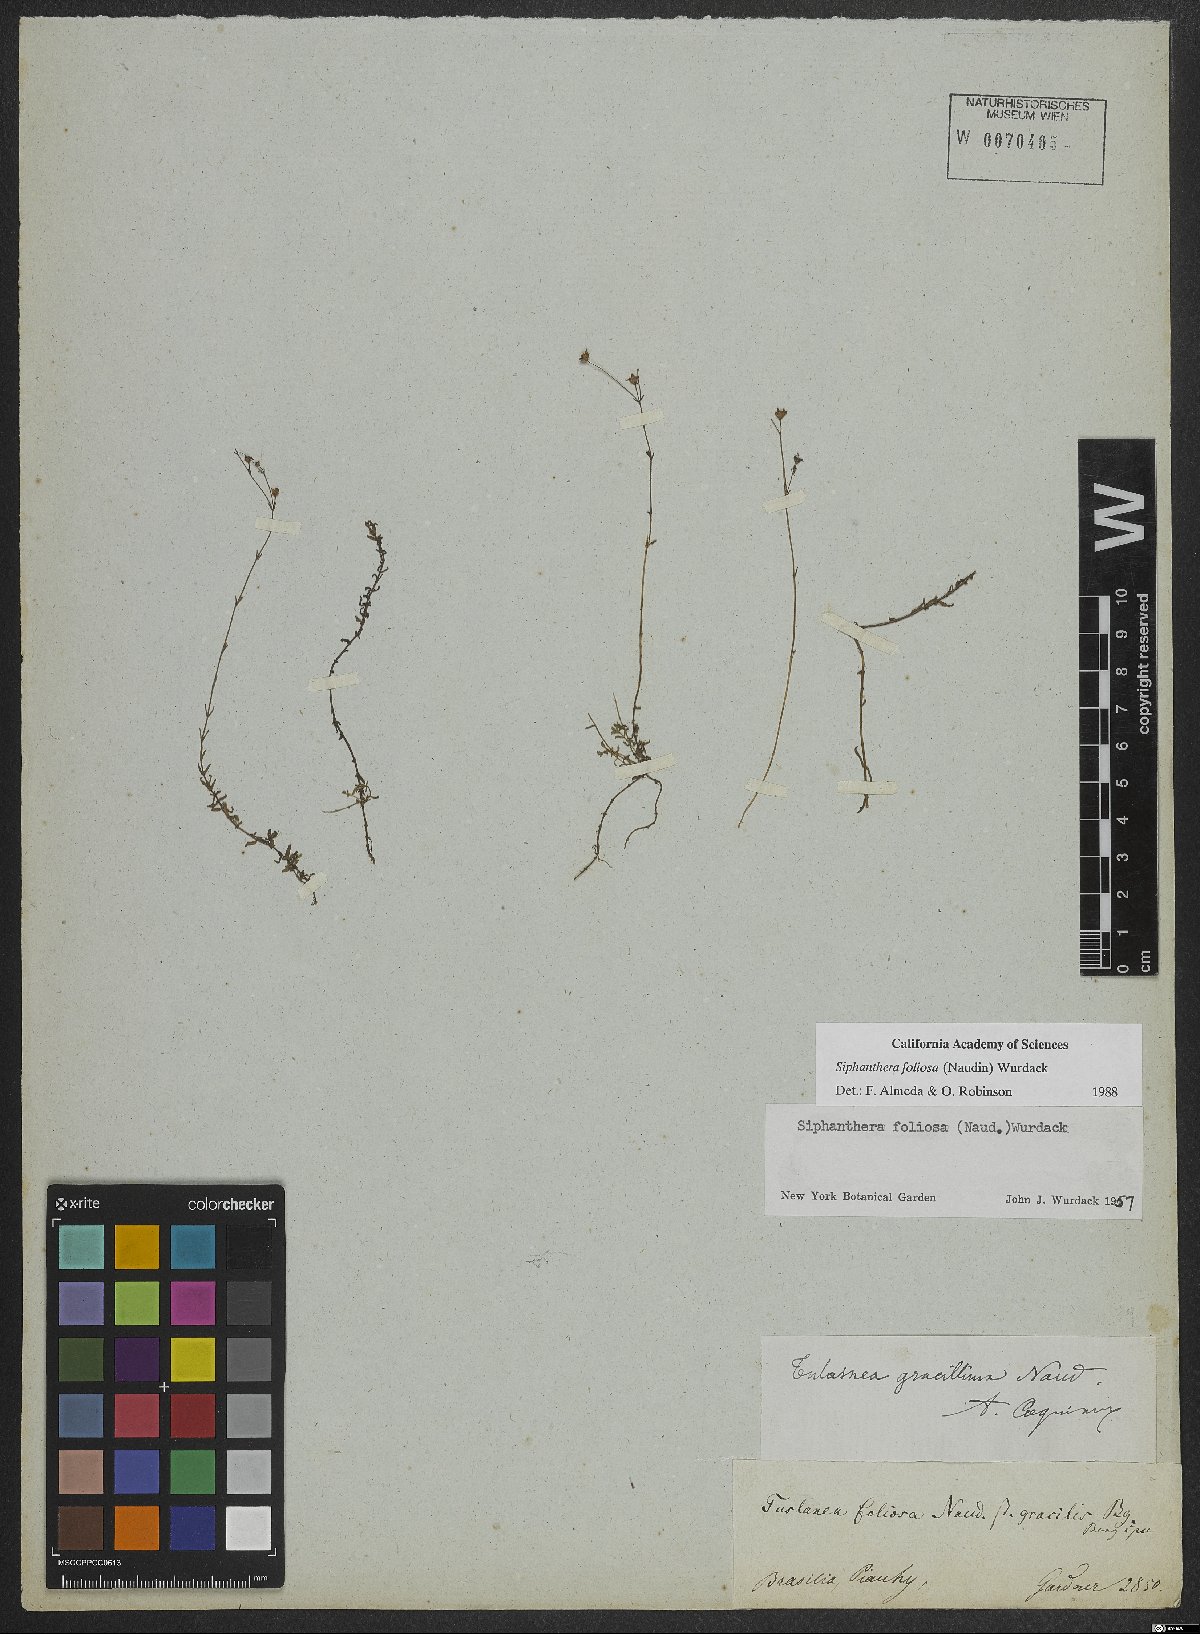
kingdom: Plantae
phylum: Tracheophyta
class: Magnoliopsida
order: Myrtales
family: Melastomataceae
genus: Siphanthera
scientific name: Siphanthera foliosa
